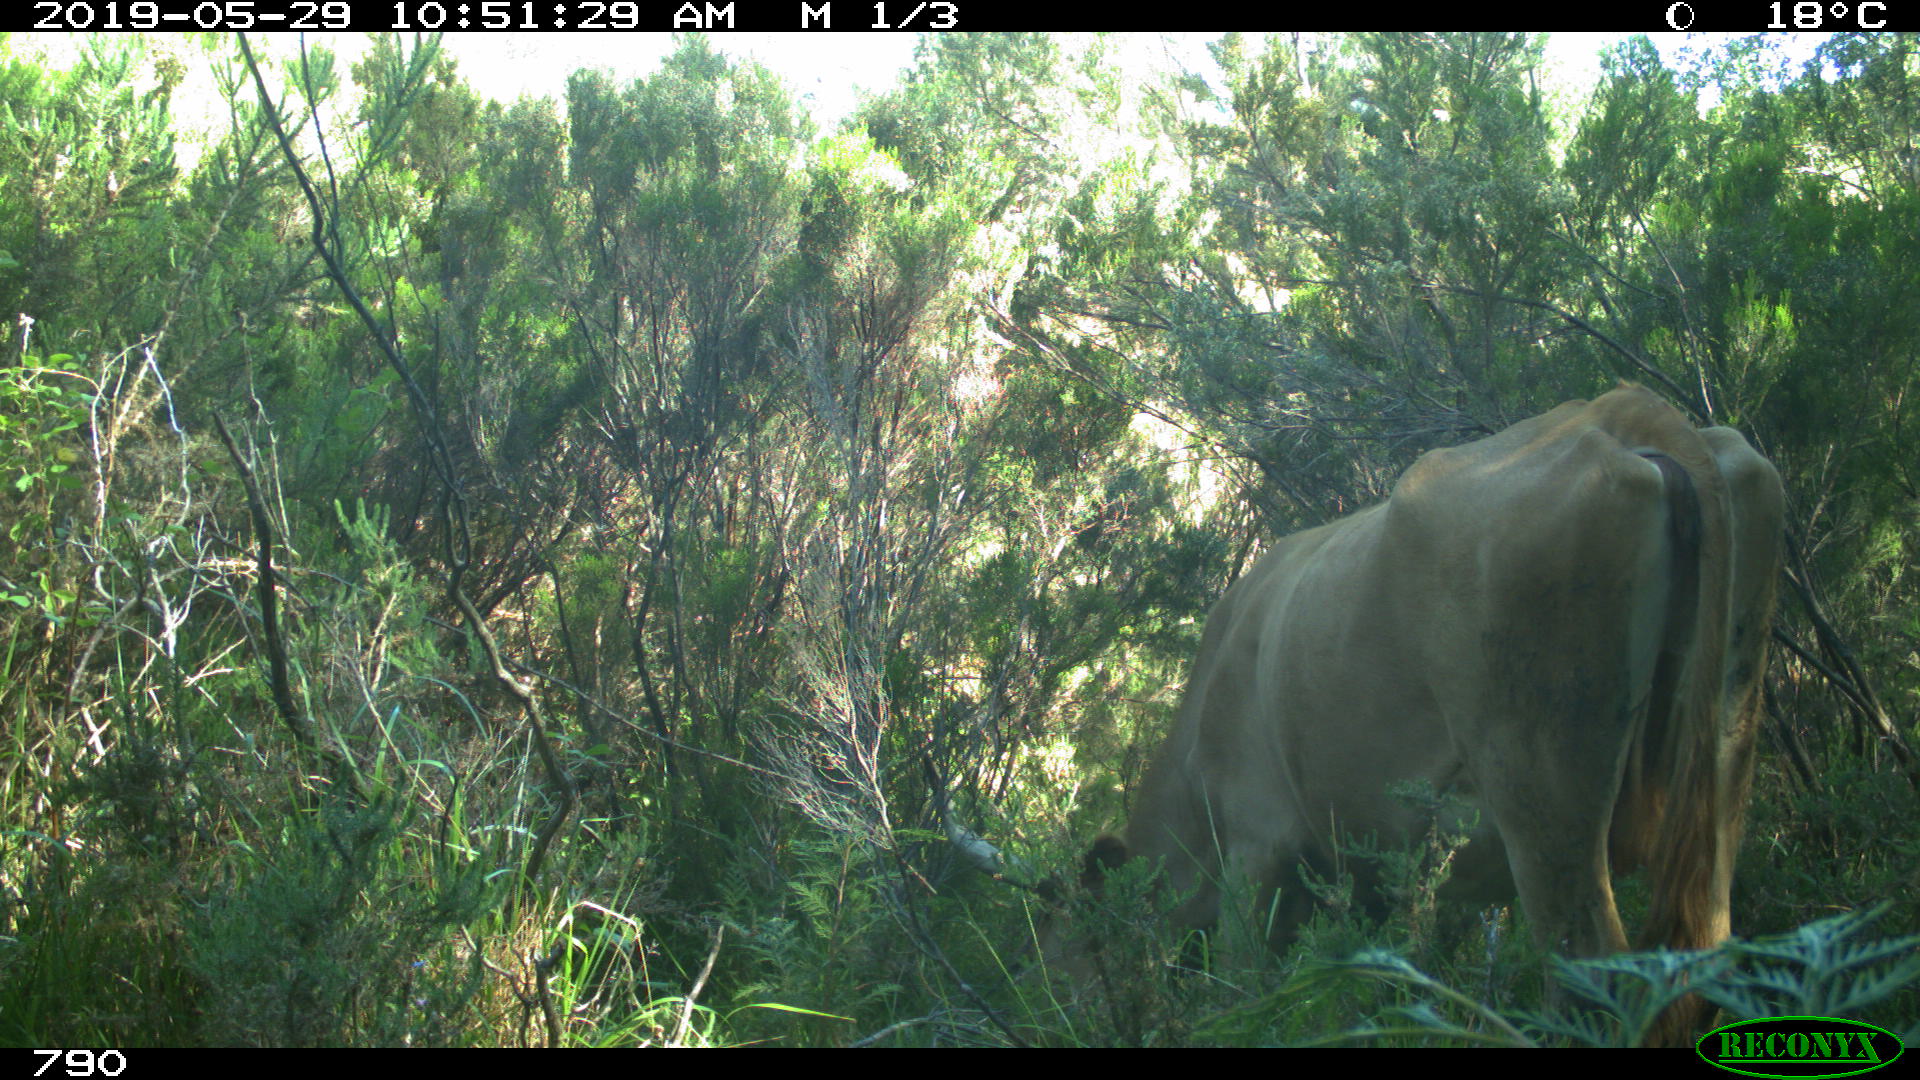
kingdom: Animalia
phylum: Chordata
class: Mammalia
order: Artiodactyla
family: Bovidae
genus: Bos
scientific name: Bos taurus
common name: Domesticated cattle
